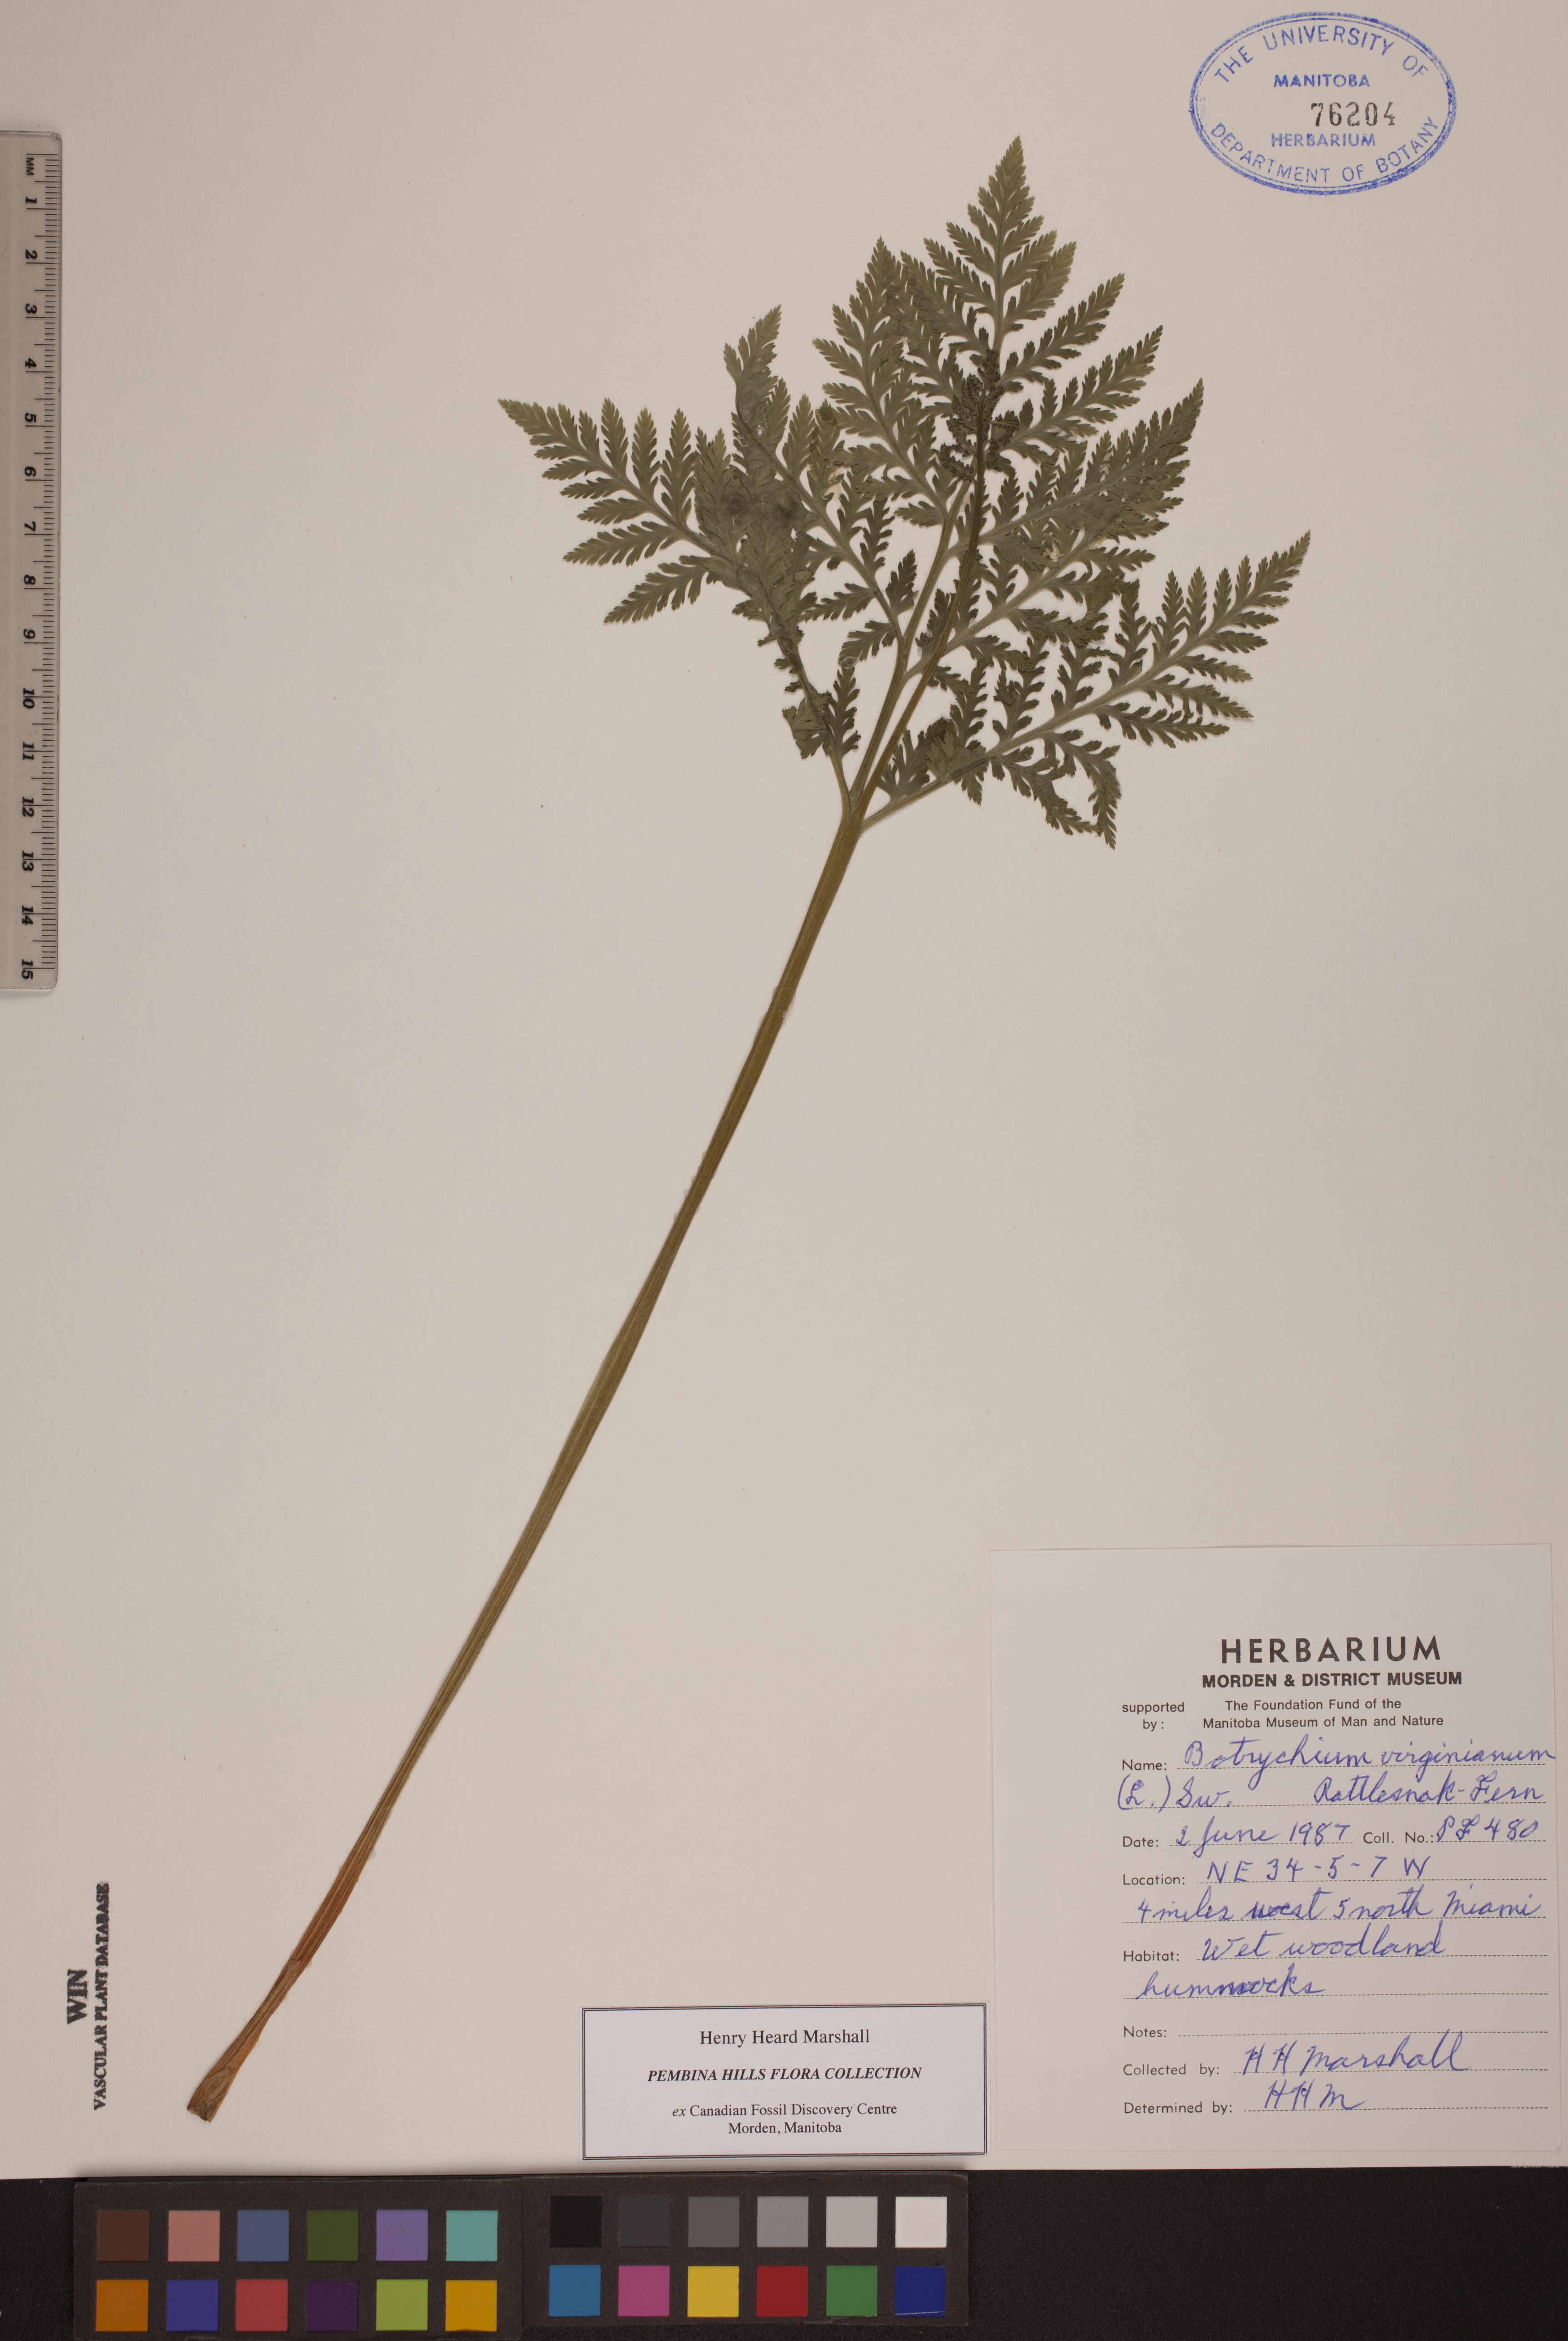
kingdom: Plantae
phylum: Tracheophyta
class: Polypodiopsida
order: Ophioglossales
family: Ophioglossaceae
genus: Botrypus
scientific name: Botrypus virginianus
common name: Common grapefern
